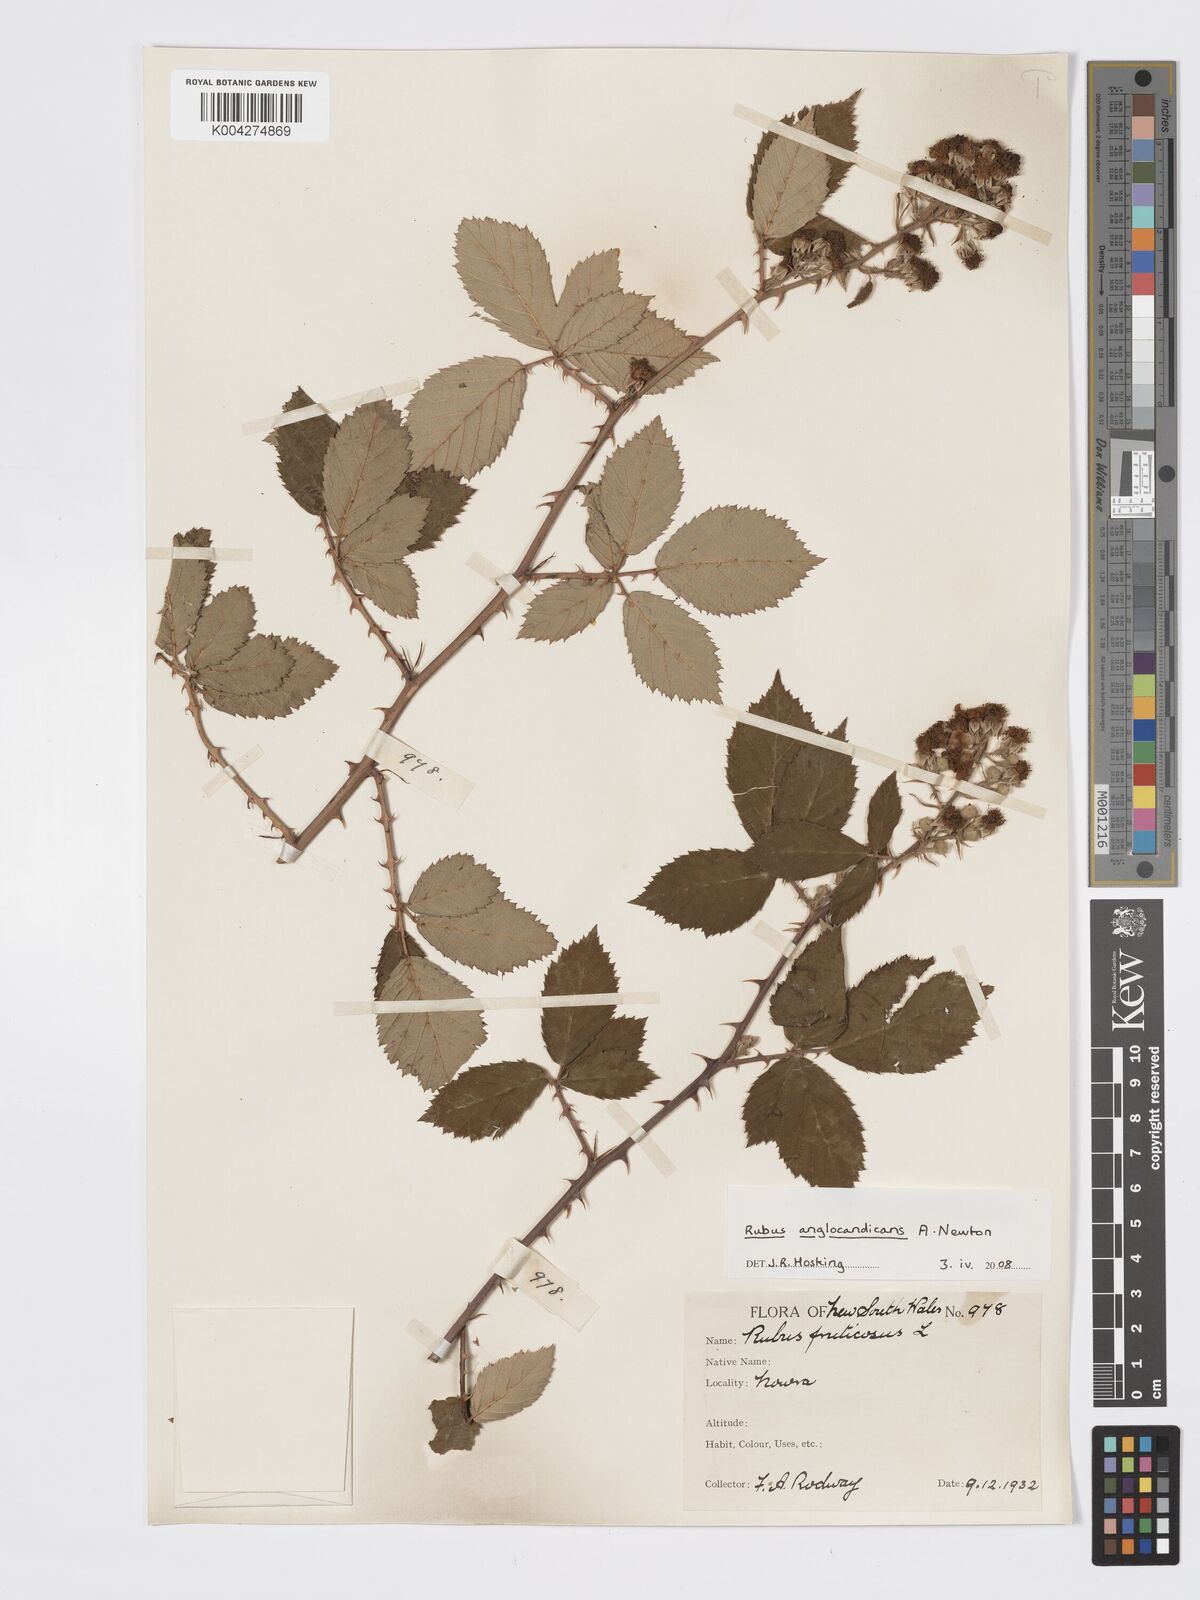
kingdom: Plantae
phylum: Tracheophyta
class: Magnoliopsida
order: Rosales
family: Rosaceae
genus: Rubus
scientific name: Rubus anglocandicans
